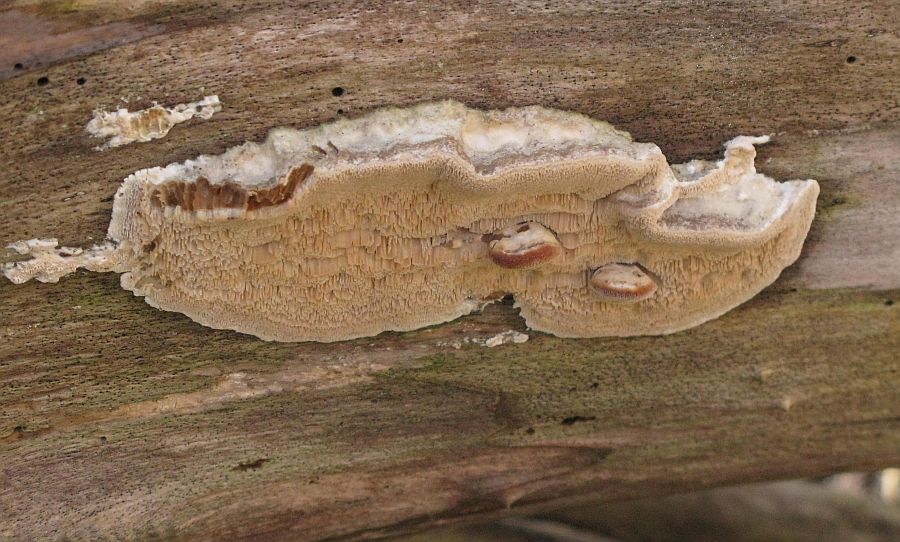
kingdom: Fungi
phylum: Basidiomycota
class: Agaricomycetes
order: Polyporales
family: Phanerochaetaceae
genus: Bjerkandera
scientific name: Bjerkandera fumosa
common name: grågul sodporesvamp
